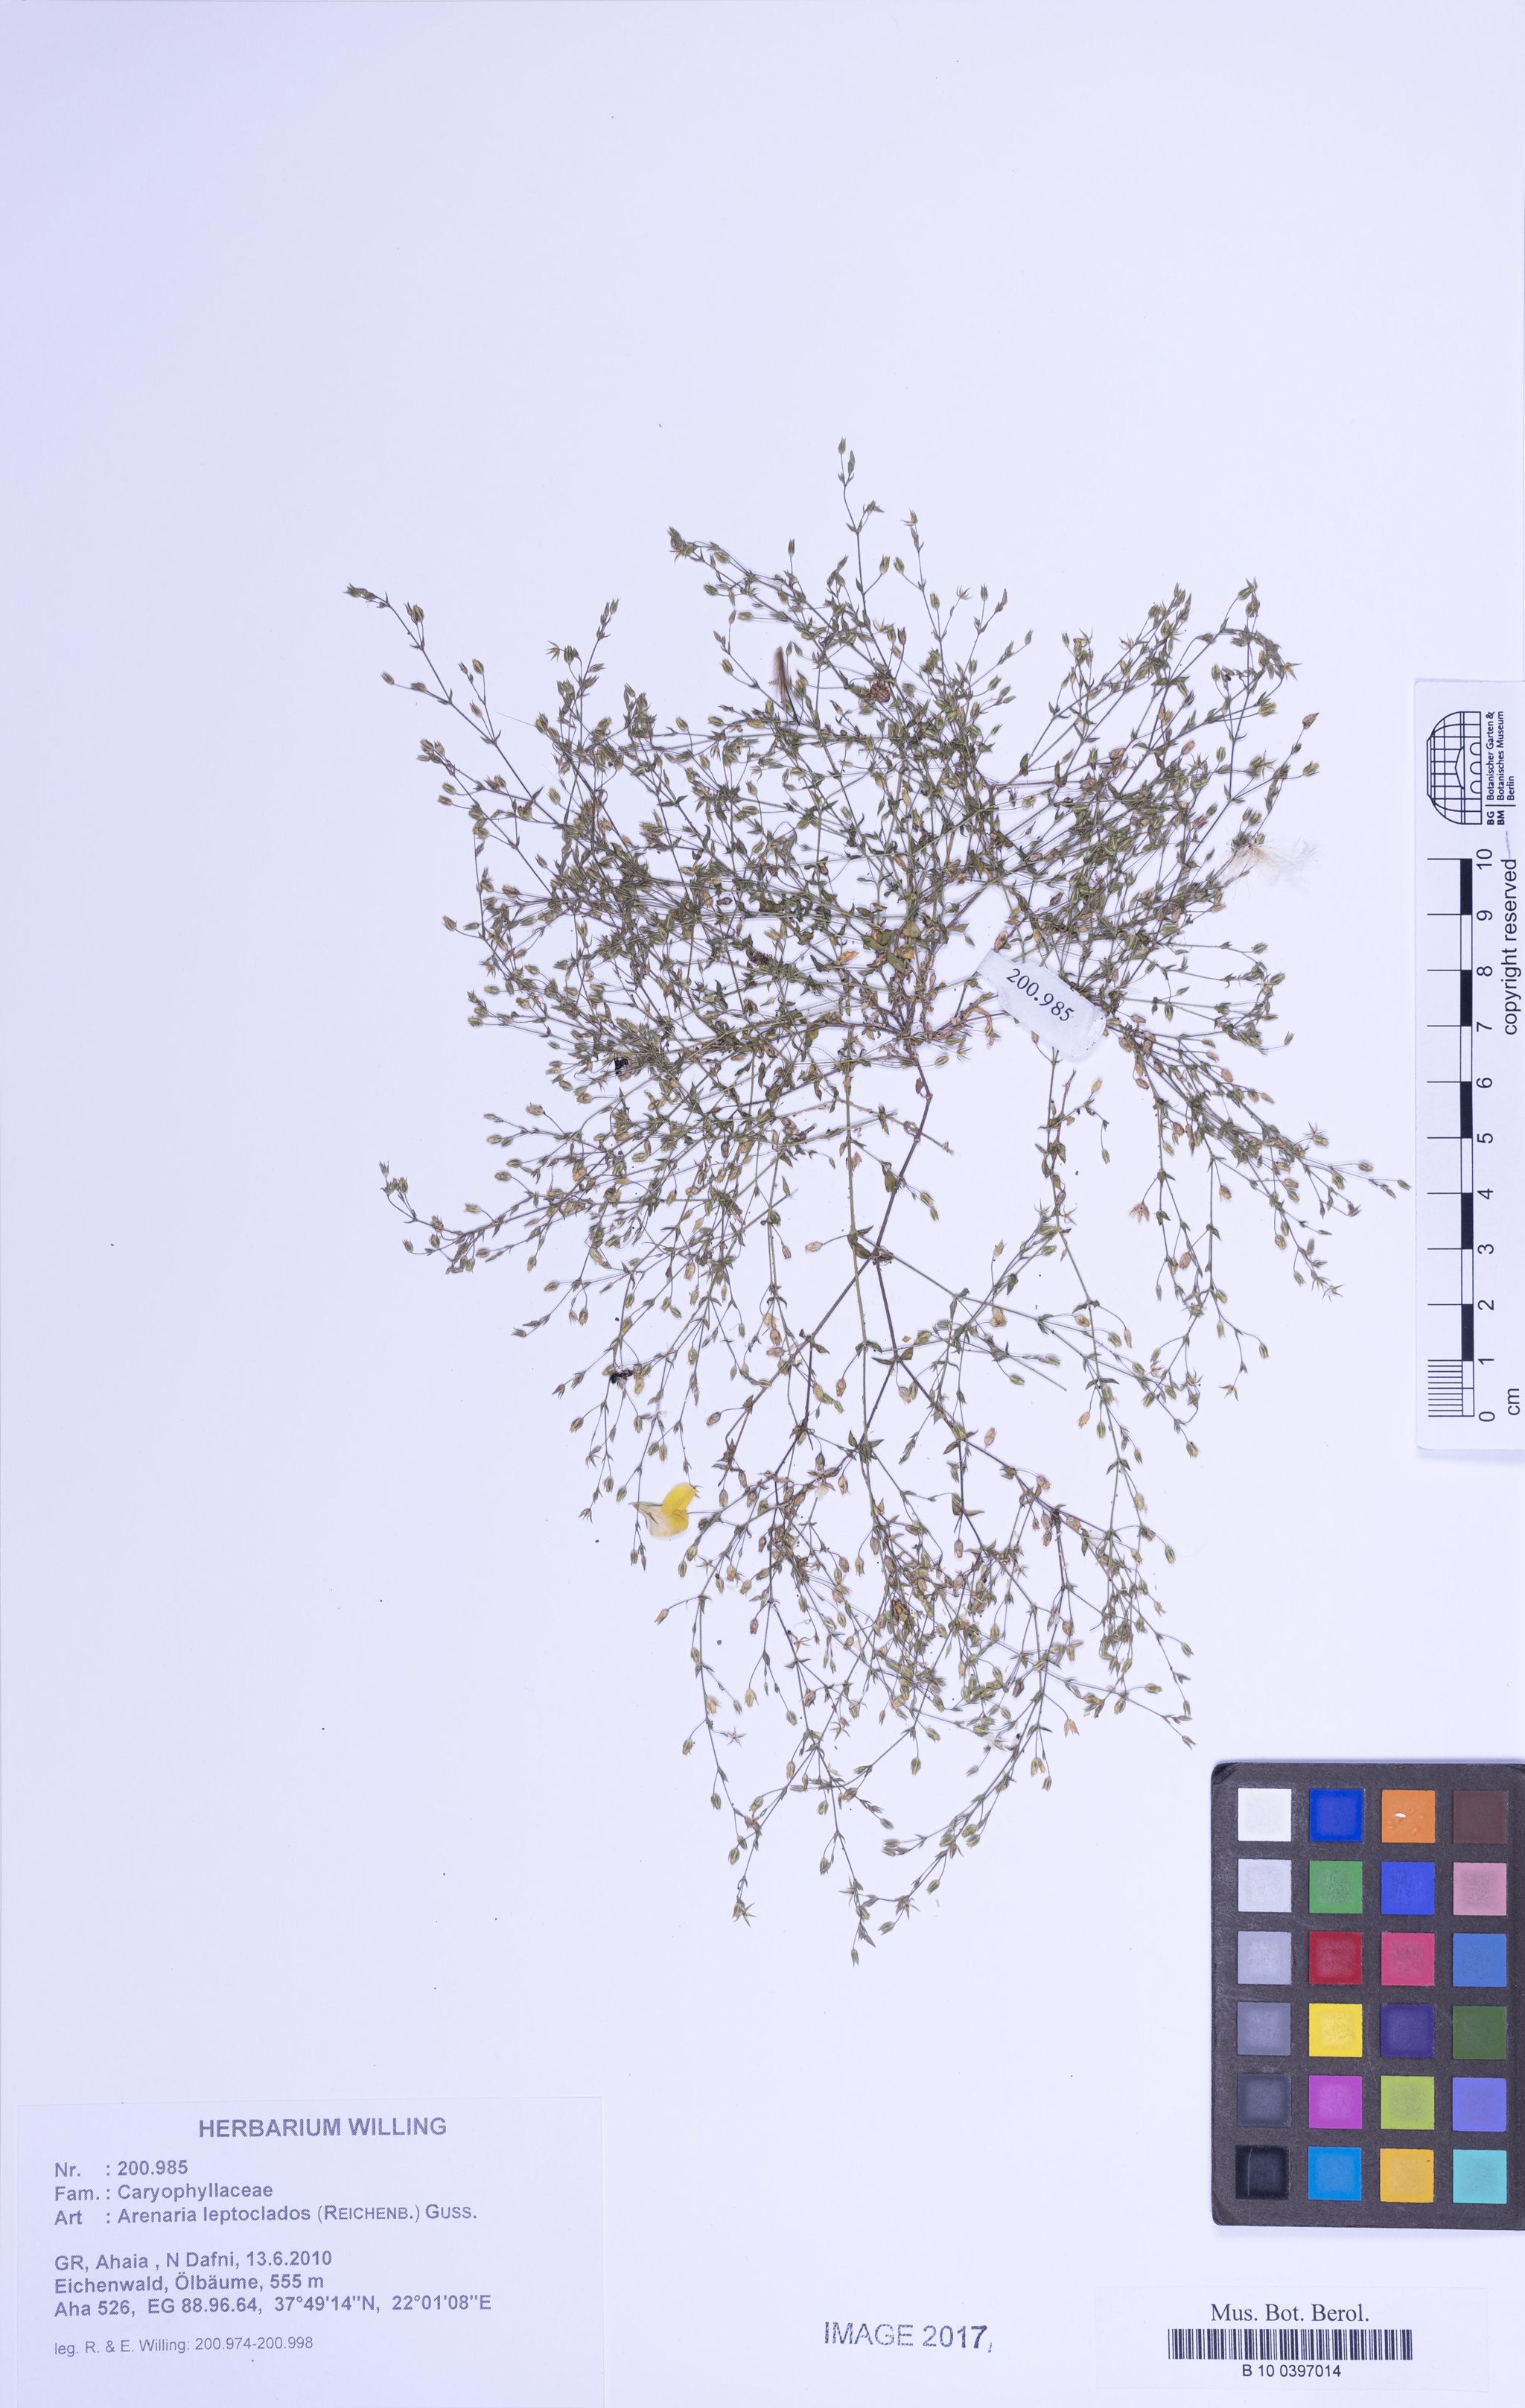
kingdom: Plantae
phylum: Tracheophyta
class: Magnoliopsida
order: Caryophyllales
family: Caryophyllaceae
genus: Arenaria
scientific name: Arenaria leptoclados
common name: Thyme-leaved sandwort
